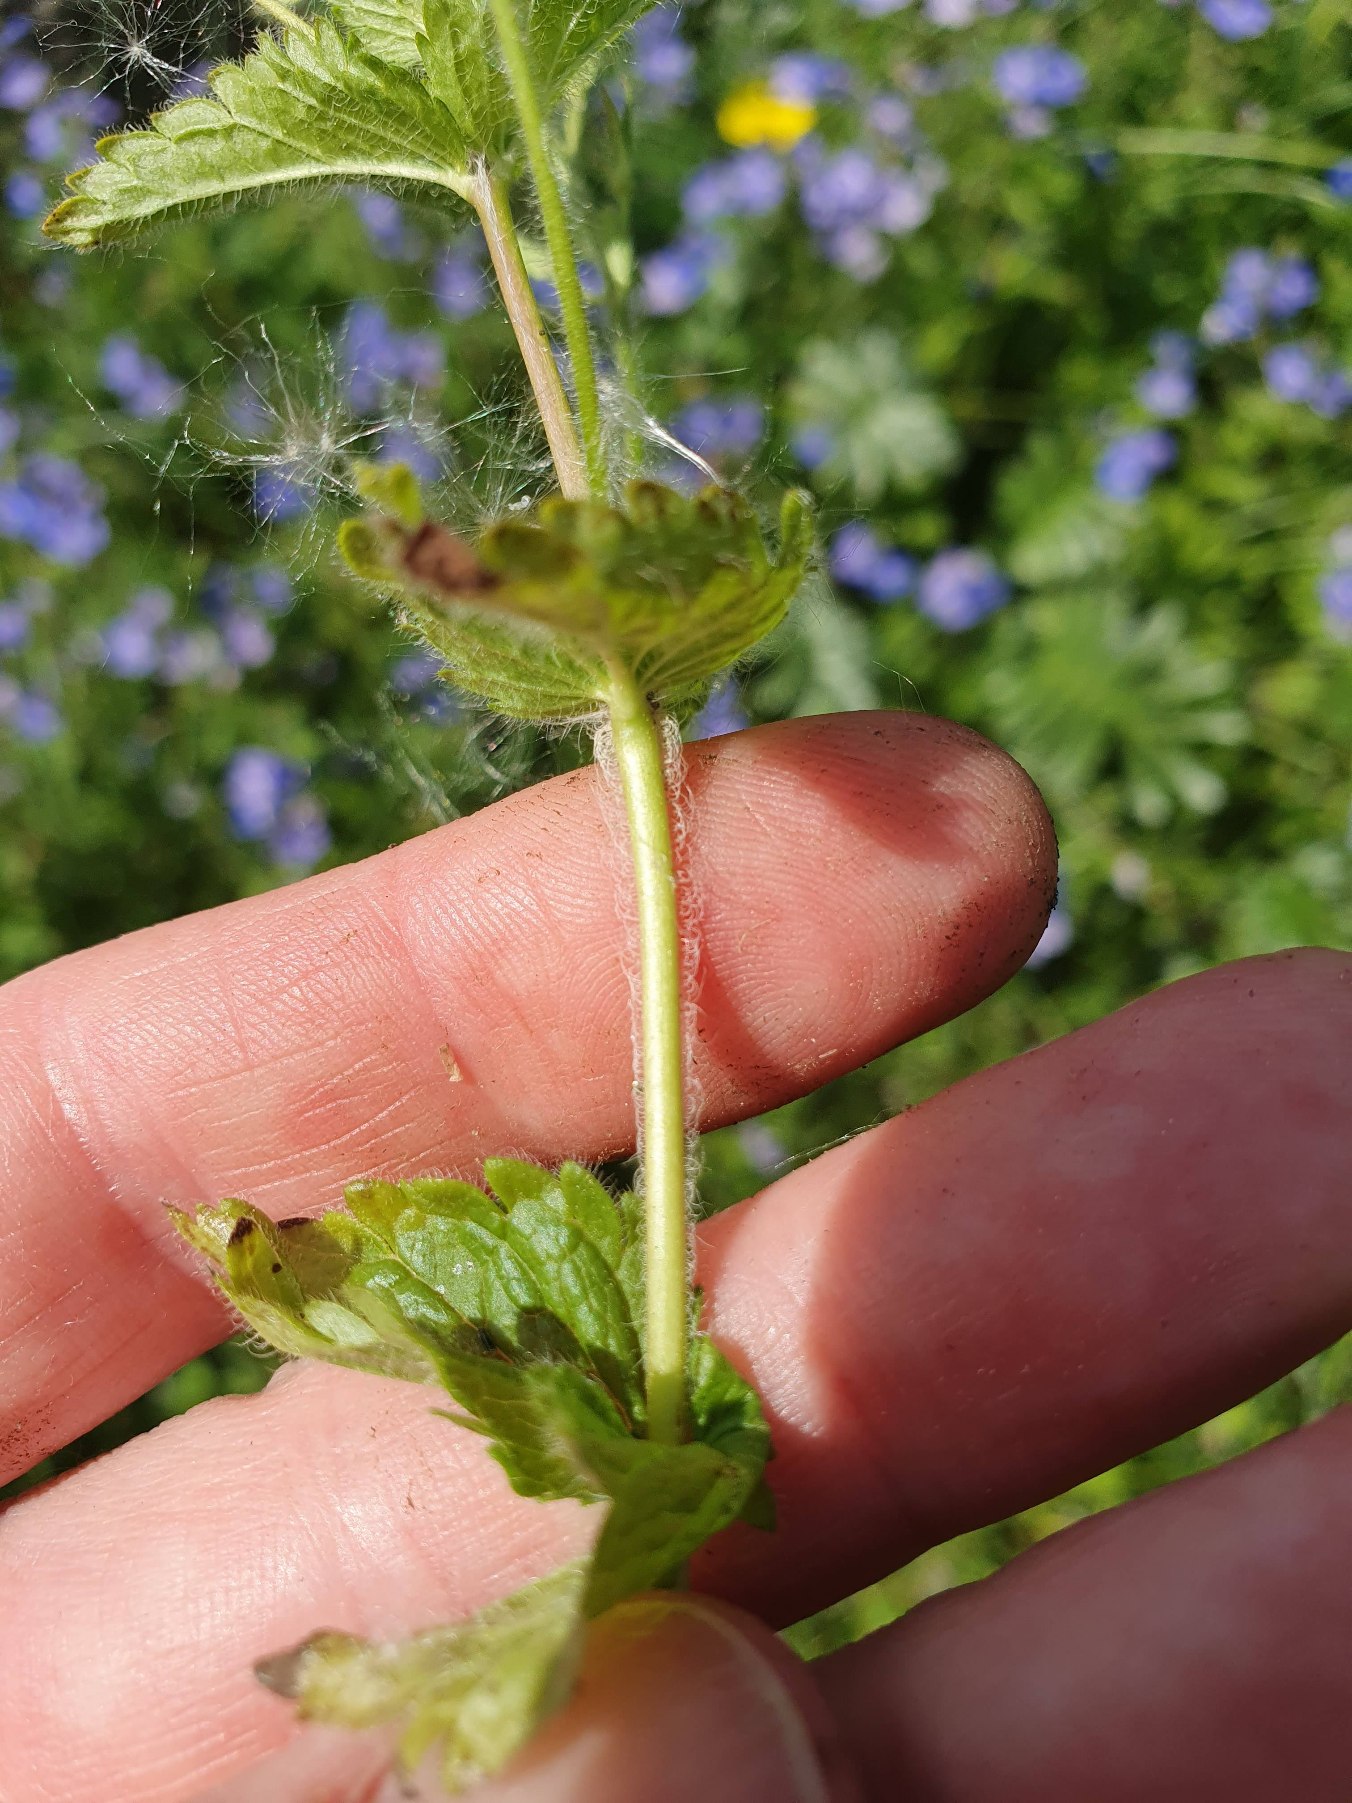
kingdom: Plantae
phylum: Tracheophyta
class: Magnoliopsida
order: Lamiales
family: Plantaginaceae
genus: Veronica
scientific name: Veronica chamaedrys
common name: Tveskægget ærenpris
